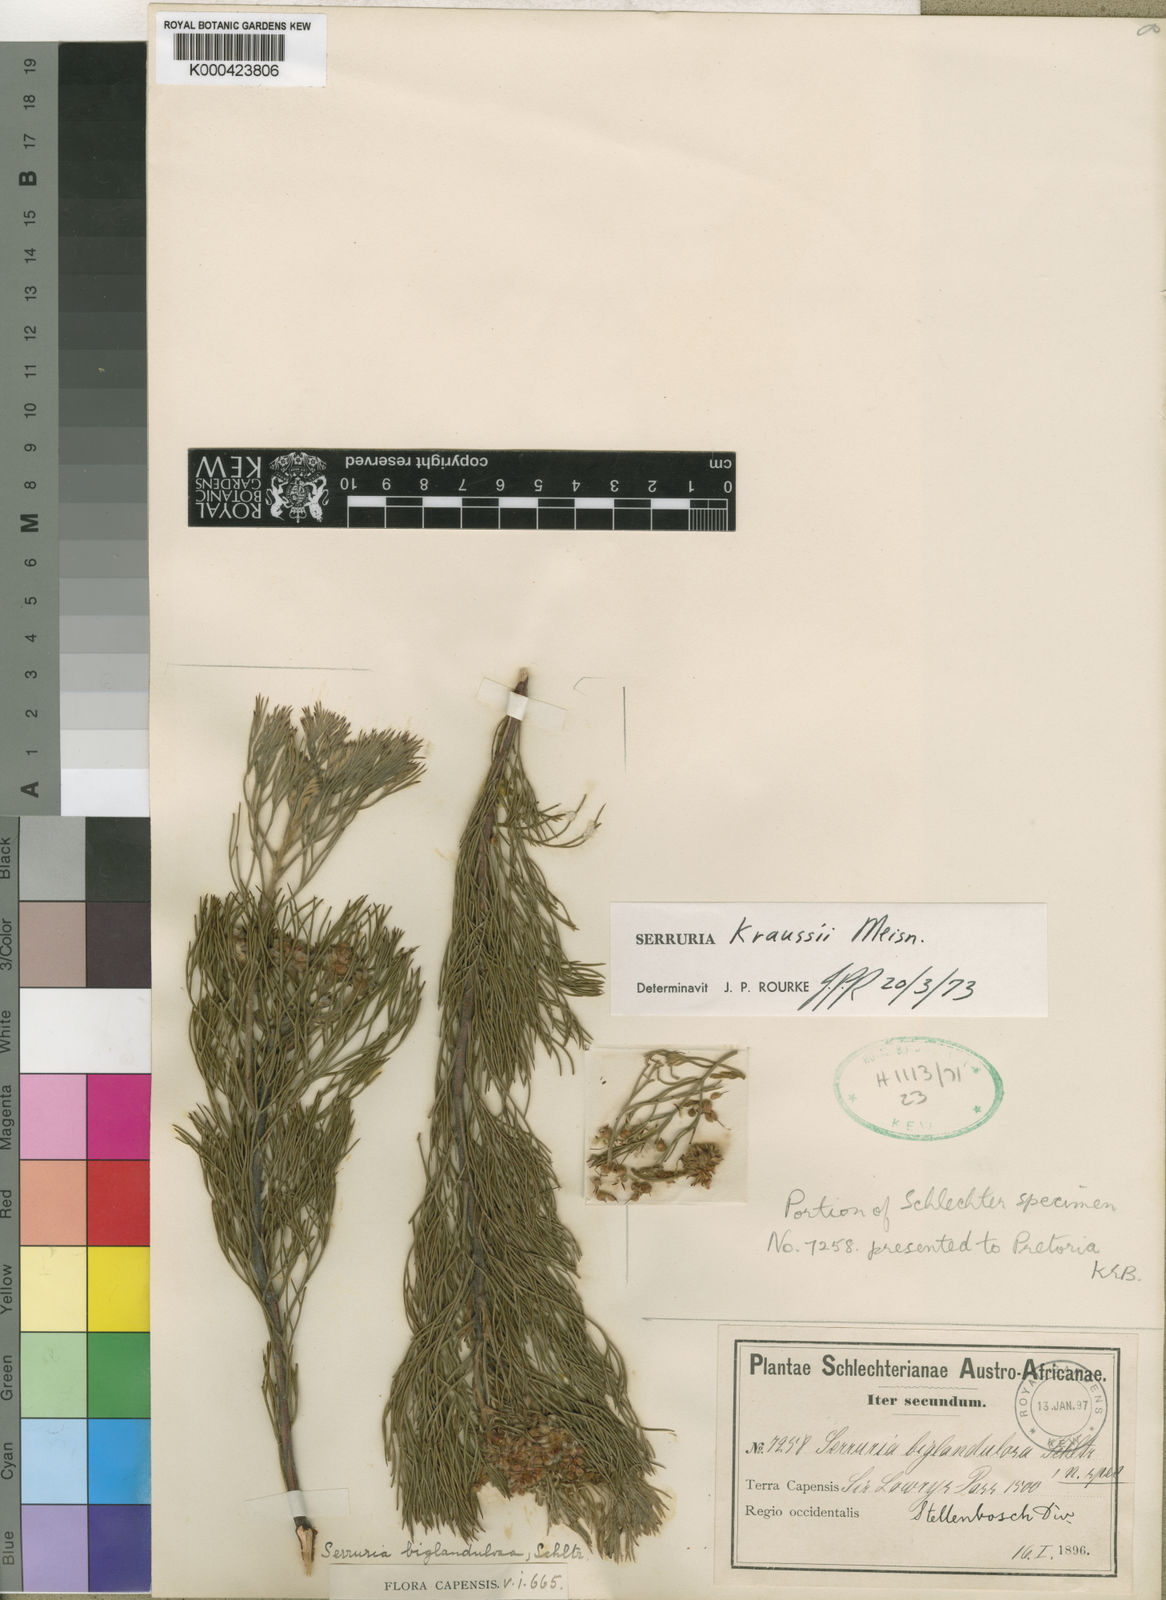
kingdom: Plantae
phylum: Tracheophyta
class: Magnoliopsida
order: Proteales
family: Proteaceae
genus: Serruria
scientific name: Serruria fasciflora
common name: Common pin spiderhead
